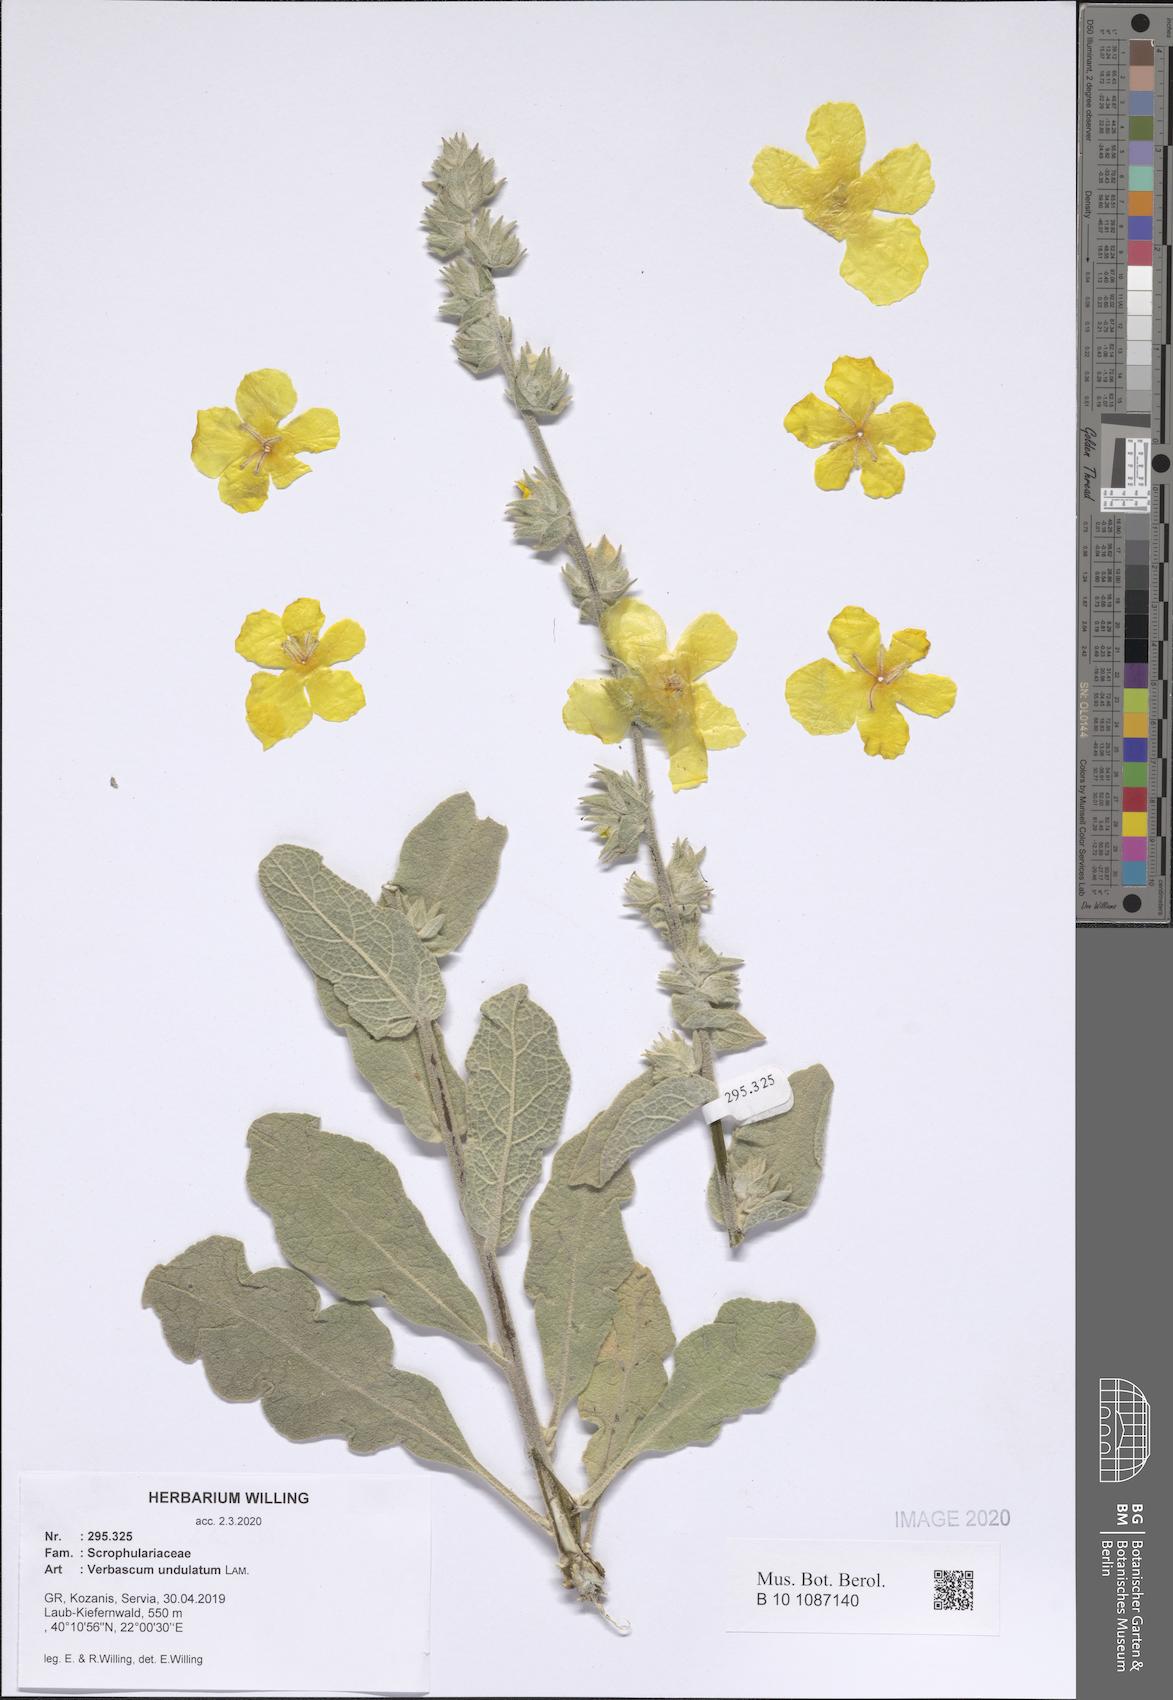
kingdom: Plantae
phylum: Tracheophyta
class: Magnoliopsida
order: Lamiales
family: Scrophulariaceae
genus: Verbascum
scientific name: Verbascum undulatum
